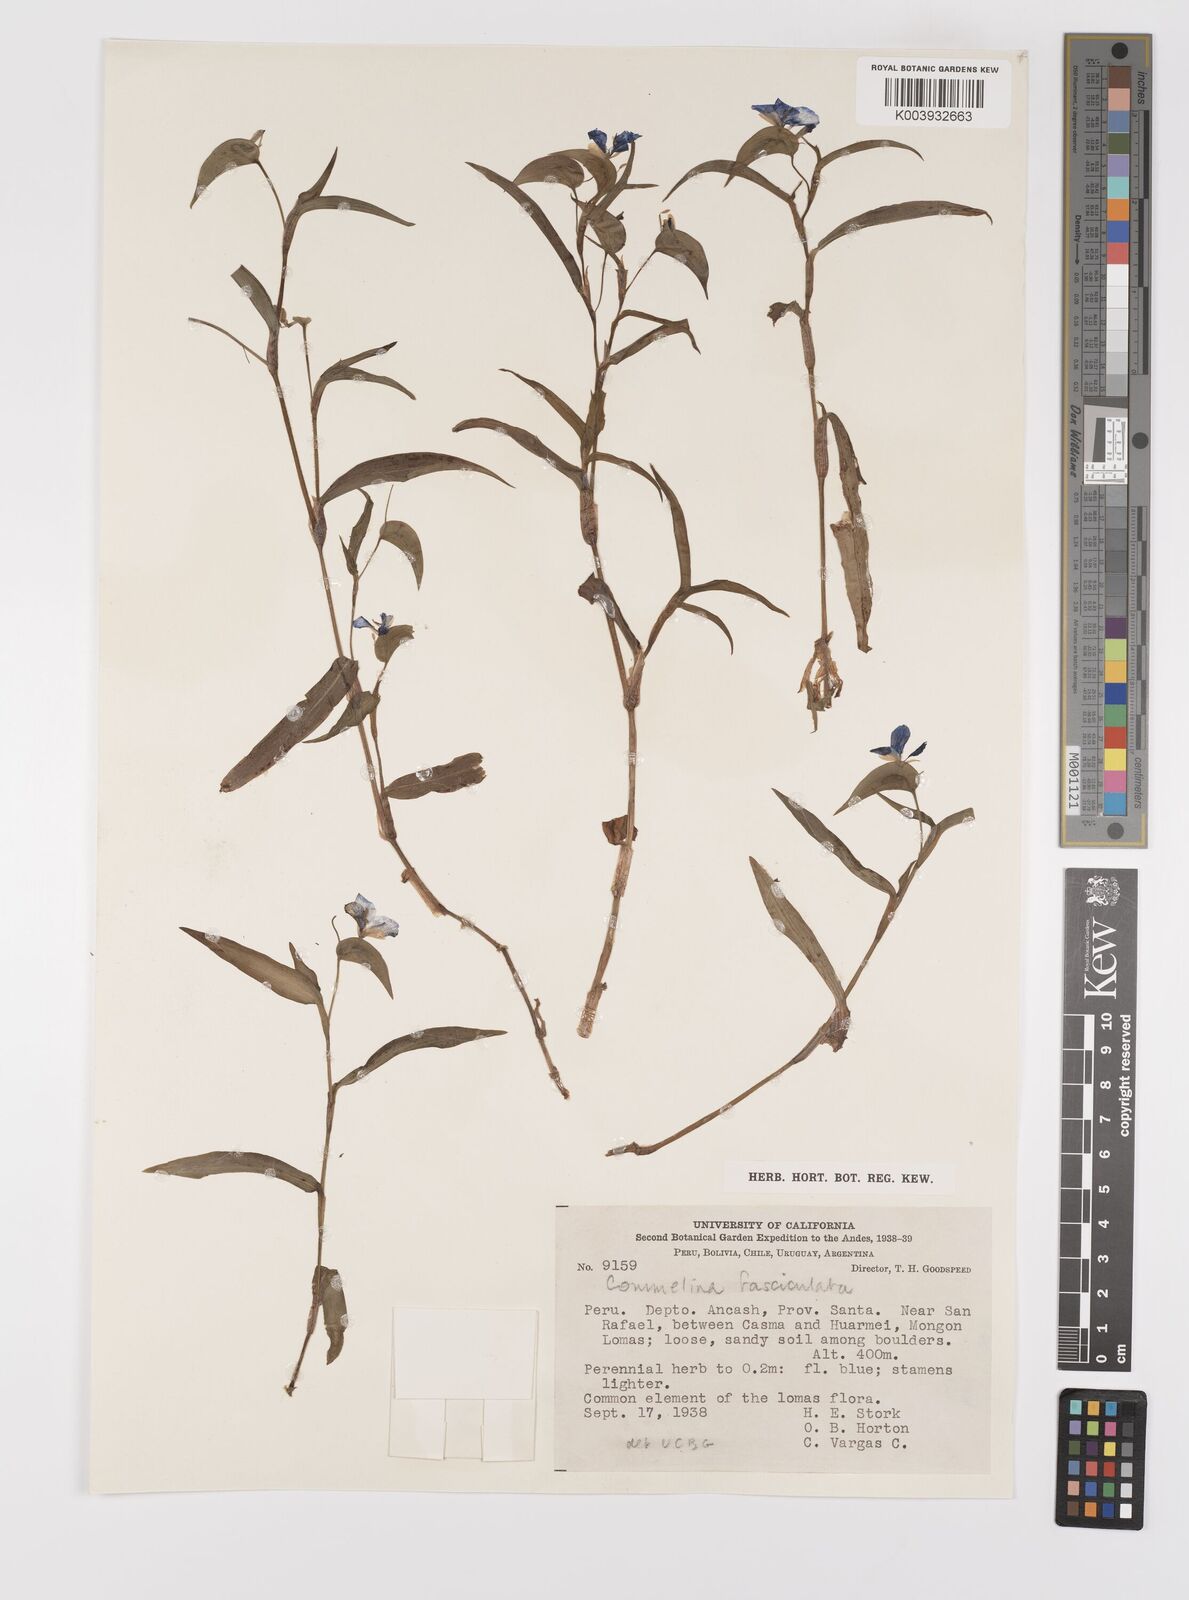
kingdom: Plantae
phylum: Tracheophyta
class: Liliopsida
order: Commelinales
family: Commelinaceae
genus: Commelina
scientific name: Commelina tuberosa
